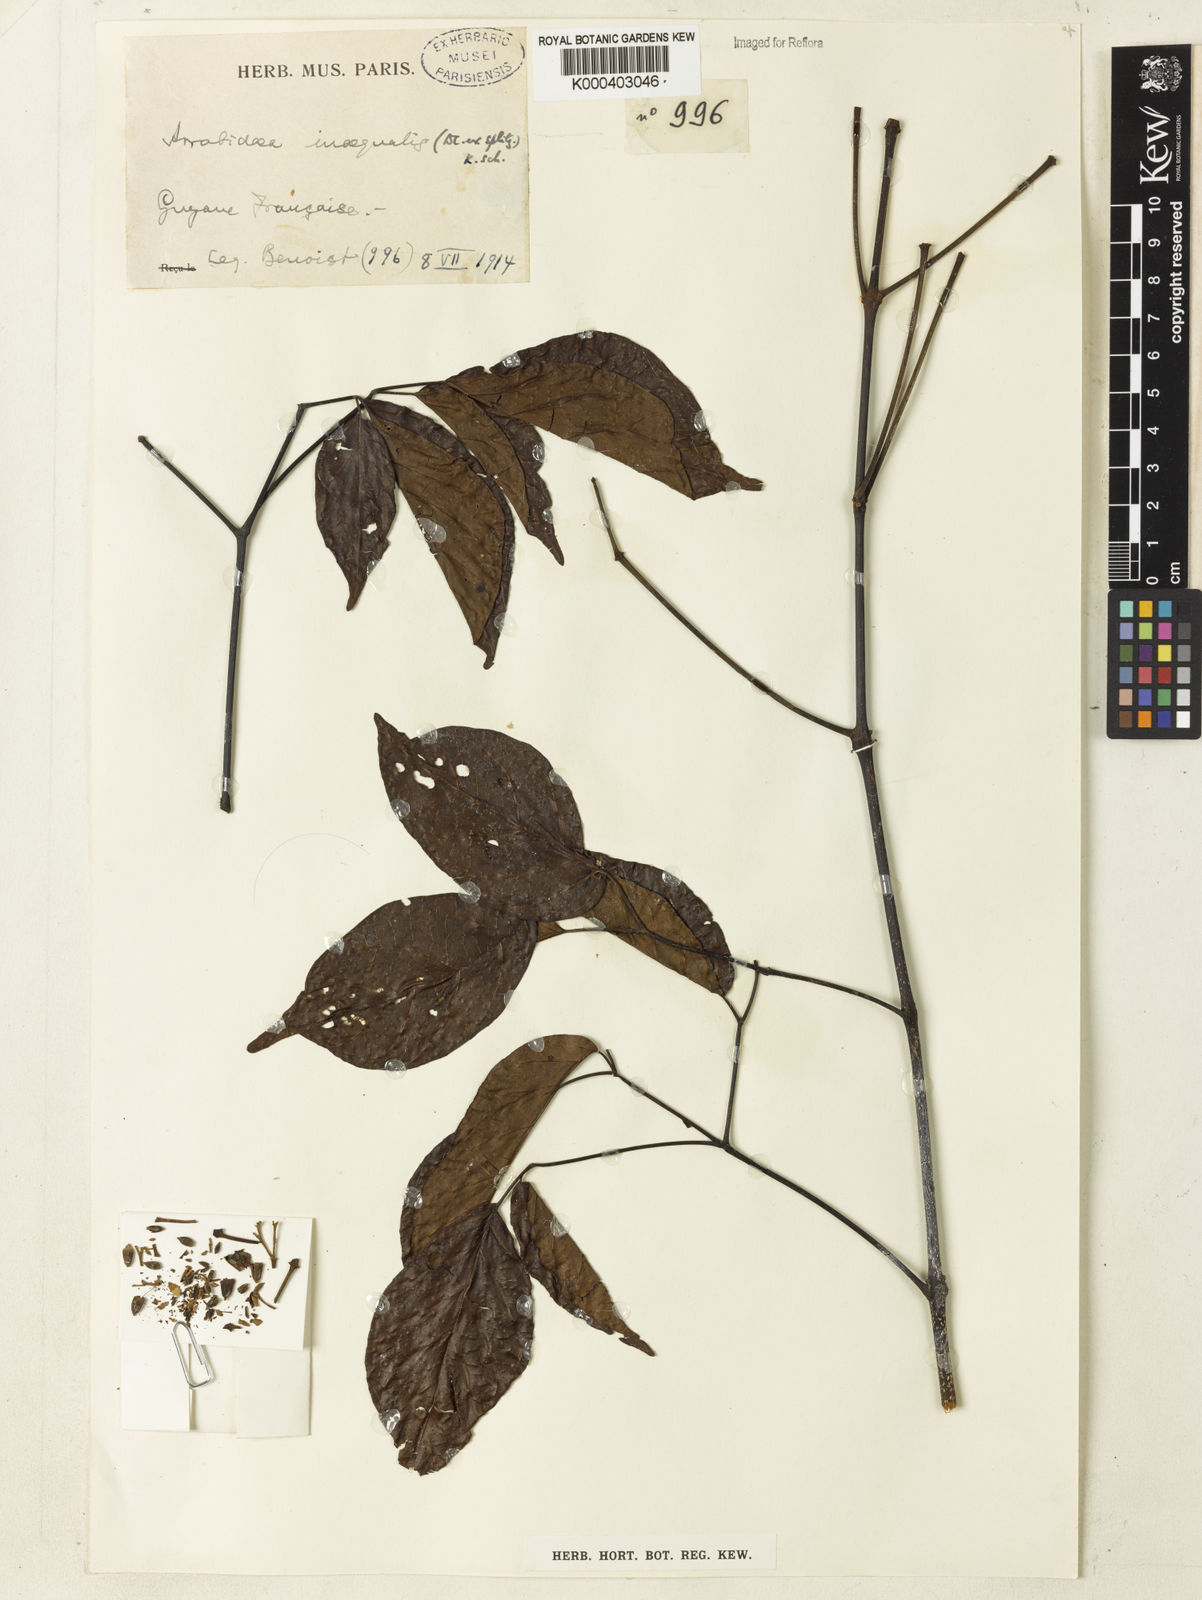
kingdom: Plantae
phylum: Tracheophyta
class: Magnoliopsida
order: Lamiales
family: Bignoniaceae
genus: Cuspidaria
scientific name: Cuspidaria inaequalis
